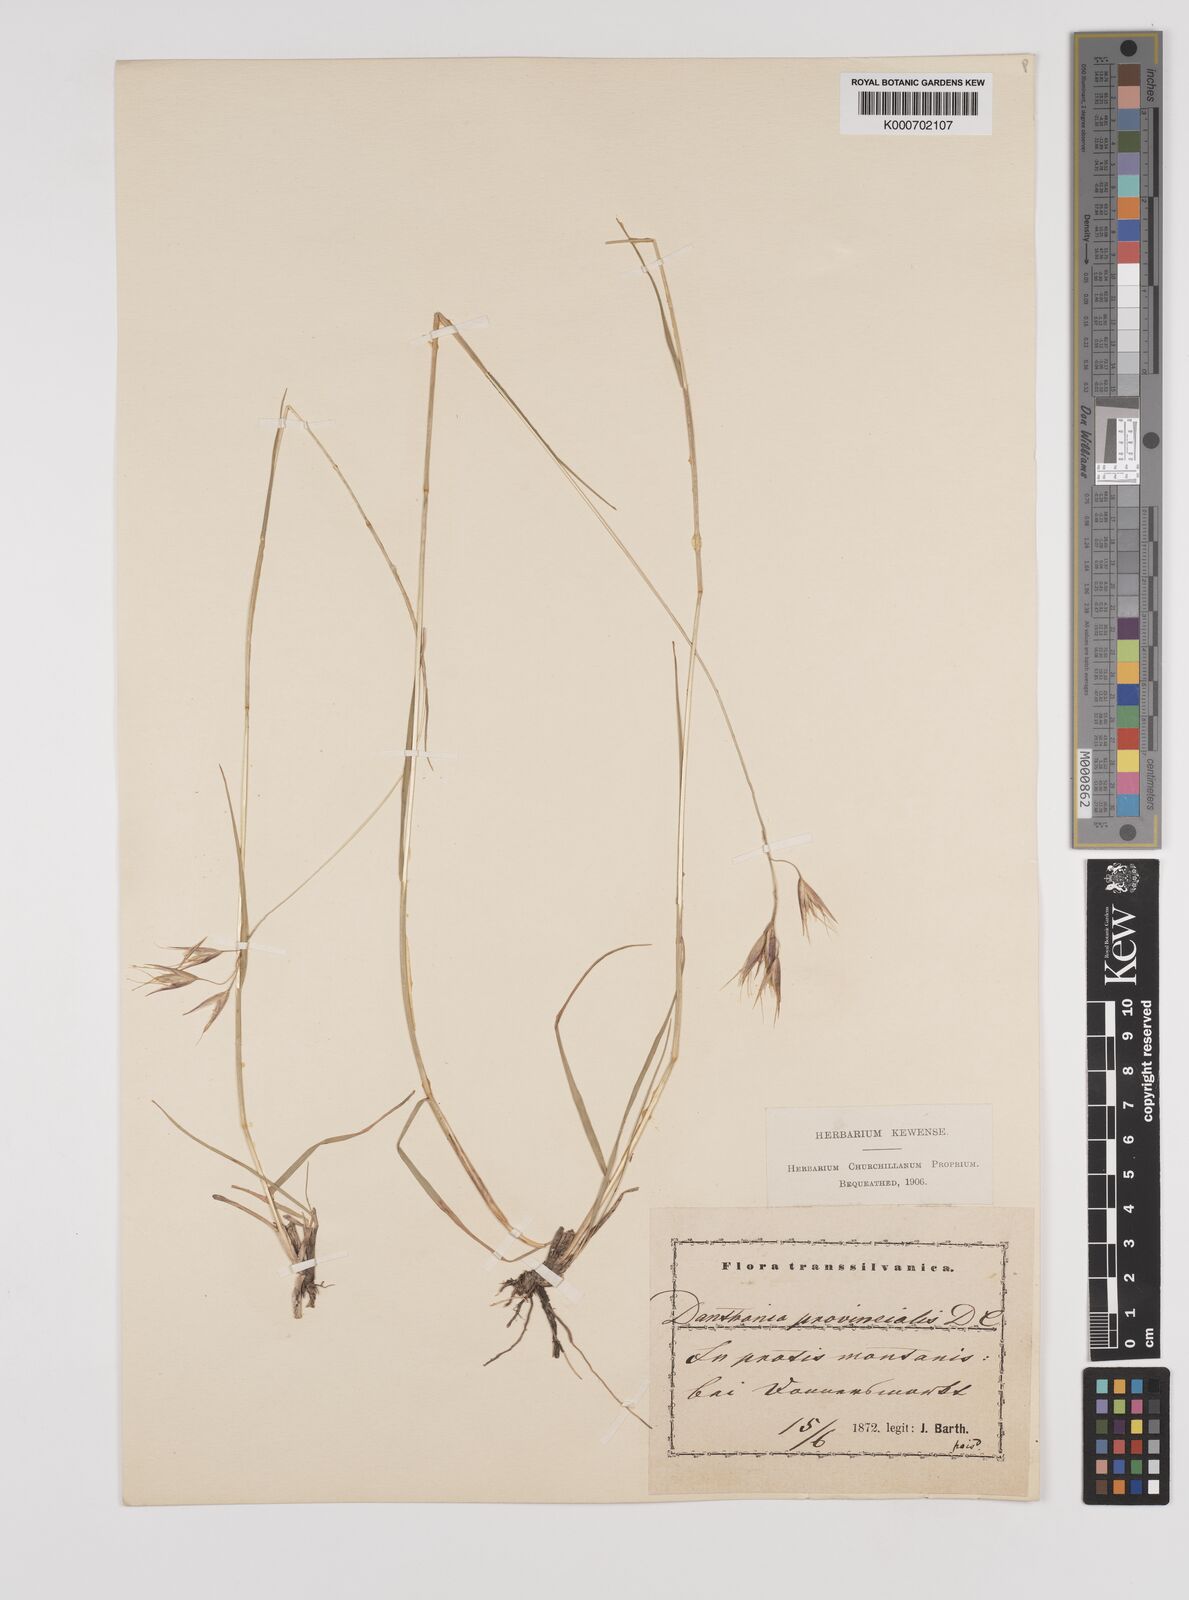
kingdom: Plantae
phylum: Tracheophyta
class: Liliopsida
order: Poales
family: Poaceae
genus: Danthonia
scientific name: Danthonia alpina
